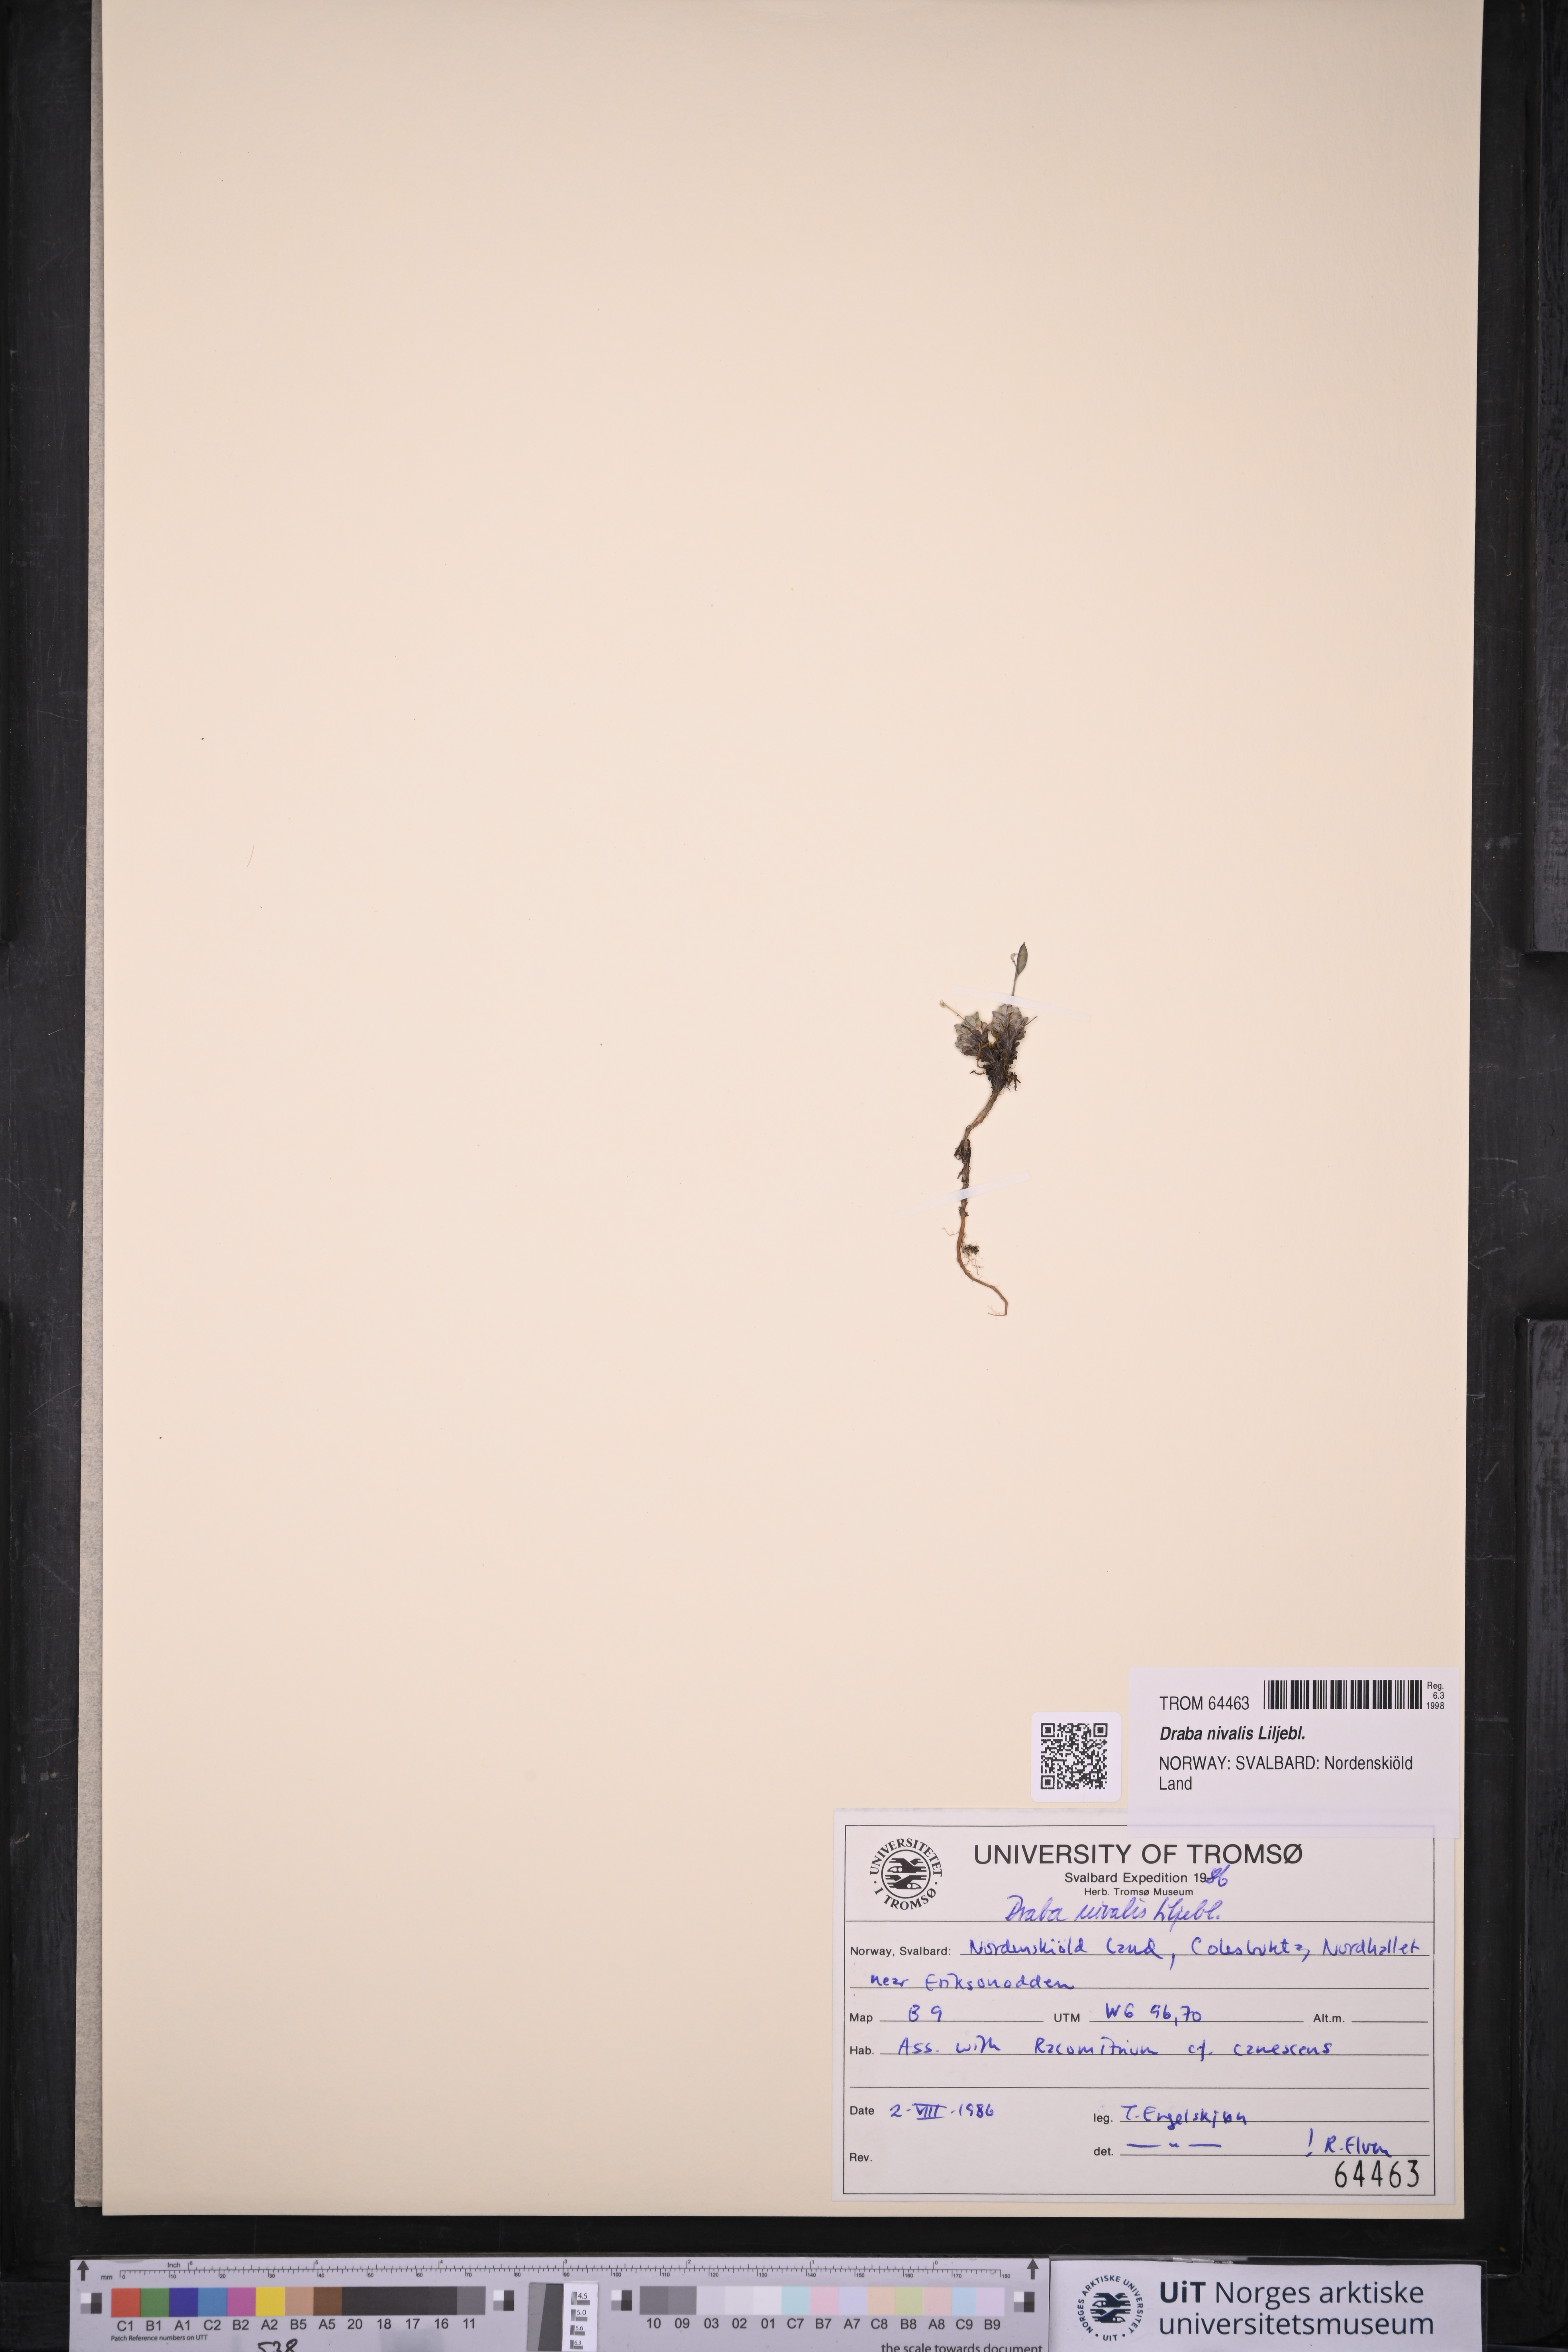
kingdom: Plantae
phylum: Tracheophyta
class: Magnoliopsida
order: Brassicales
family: Brassicaceae
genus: Draba
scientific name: Draba nivalis
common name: Snow draba
